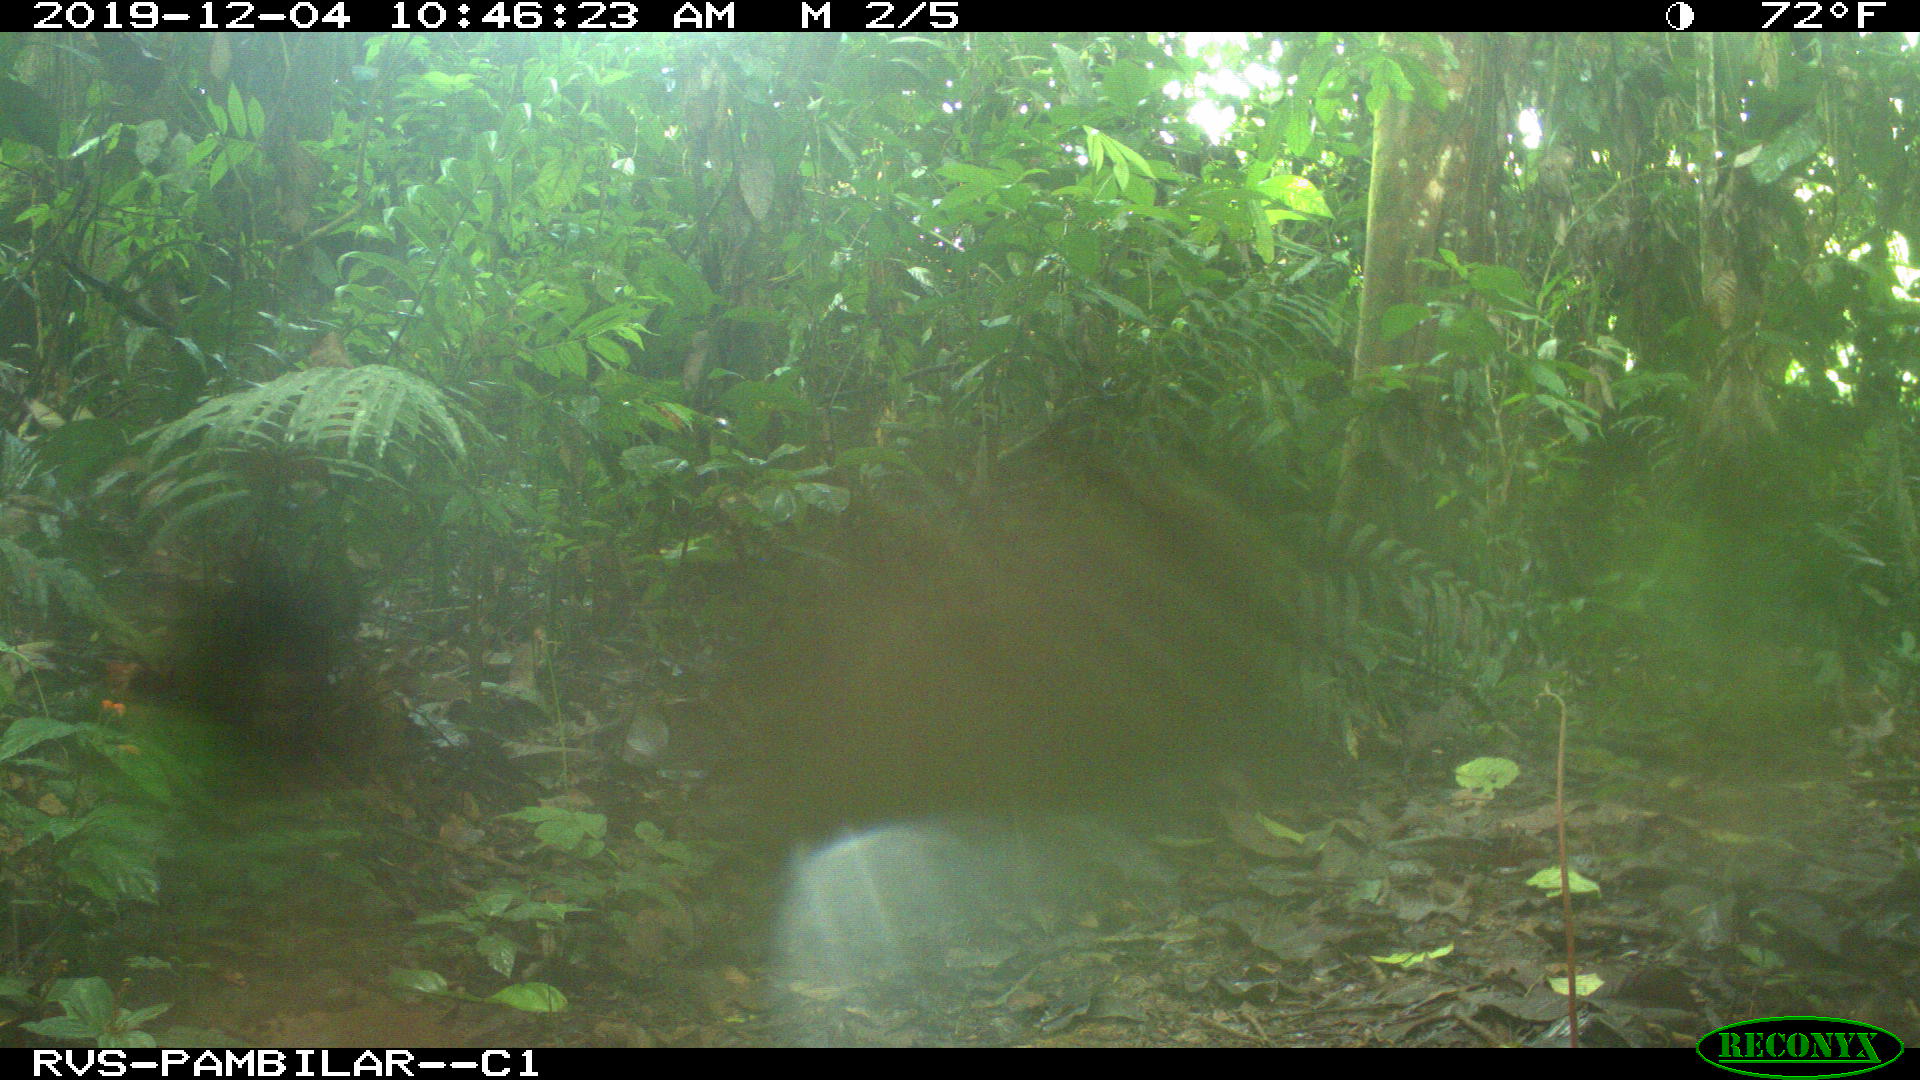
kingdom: Animalia
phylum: Chordata
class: Mammalia
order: Rodentia
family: Dasyproctidae
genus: Dasyprocta
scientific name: Dasyprocta punctata
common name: Central american agouti
